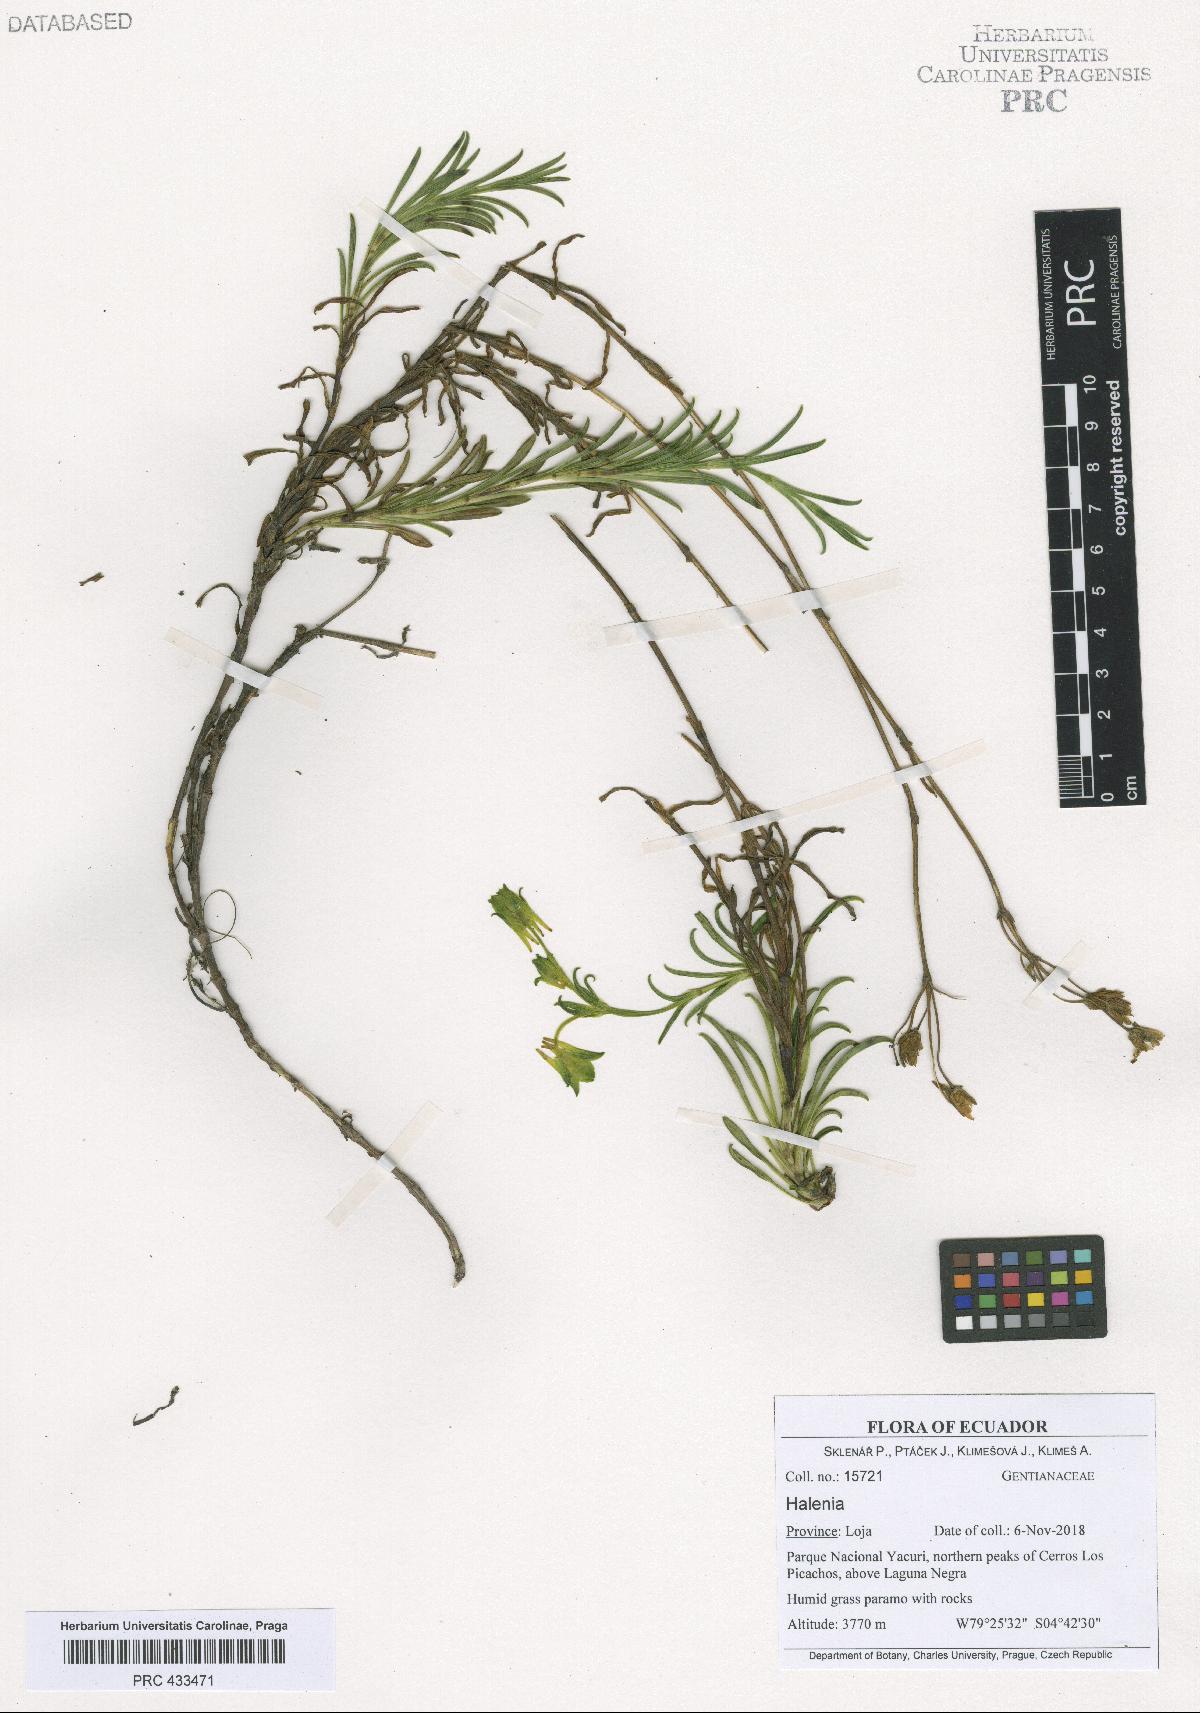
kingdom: Plantae
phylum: Tracheophyta
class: Magnoliopsida
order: Gentianales
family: Gentianaceae
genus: Halenia
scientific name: Halenia
